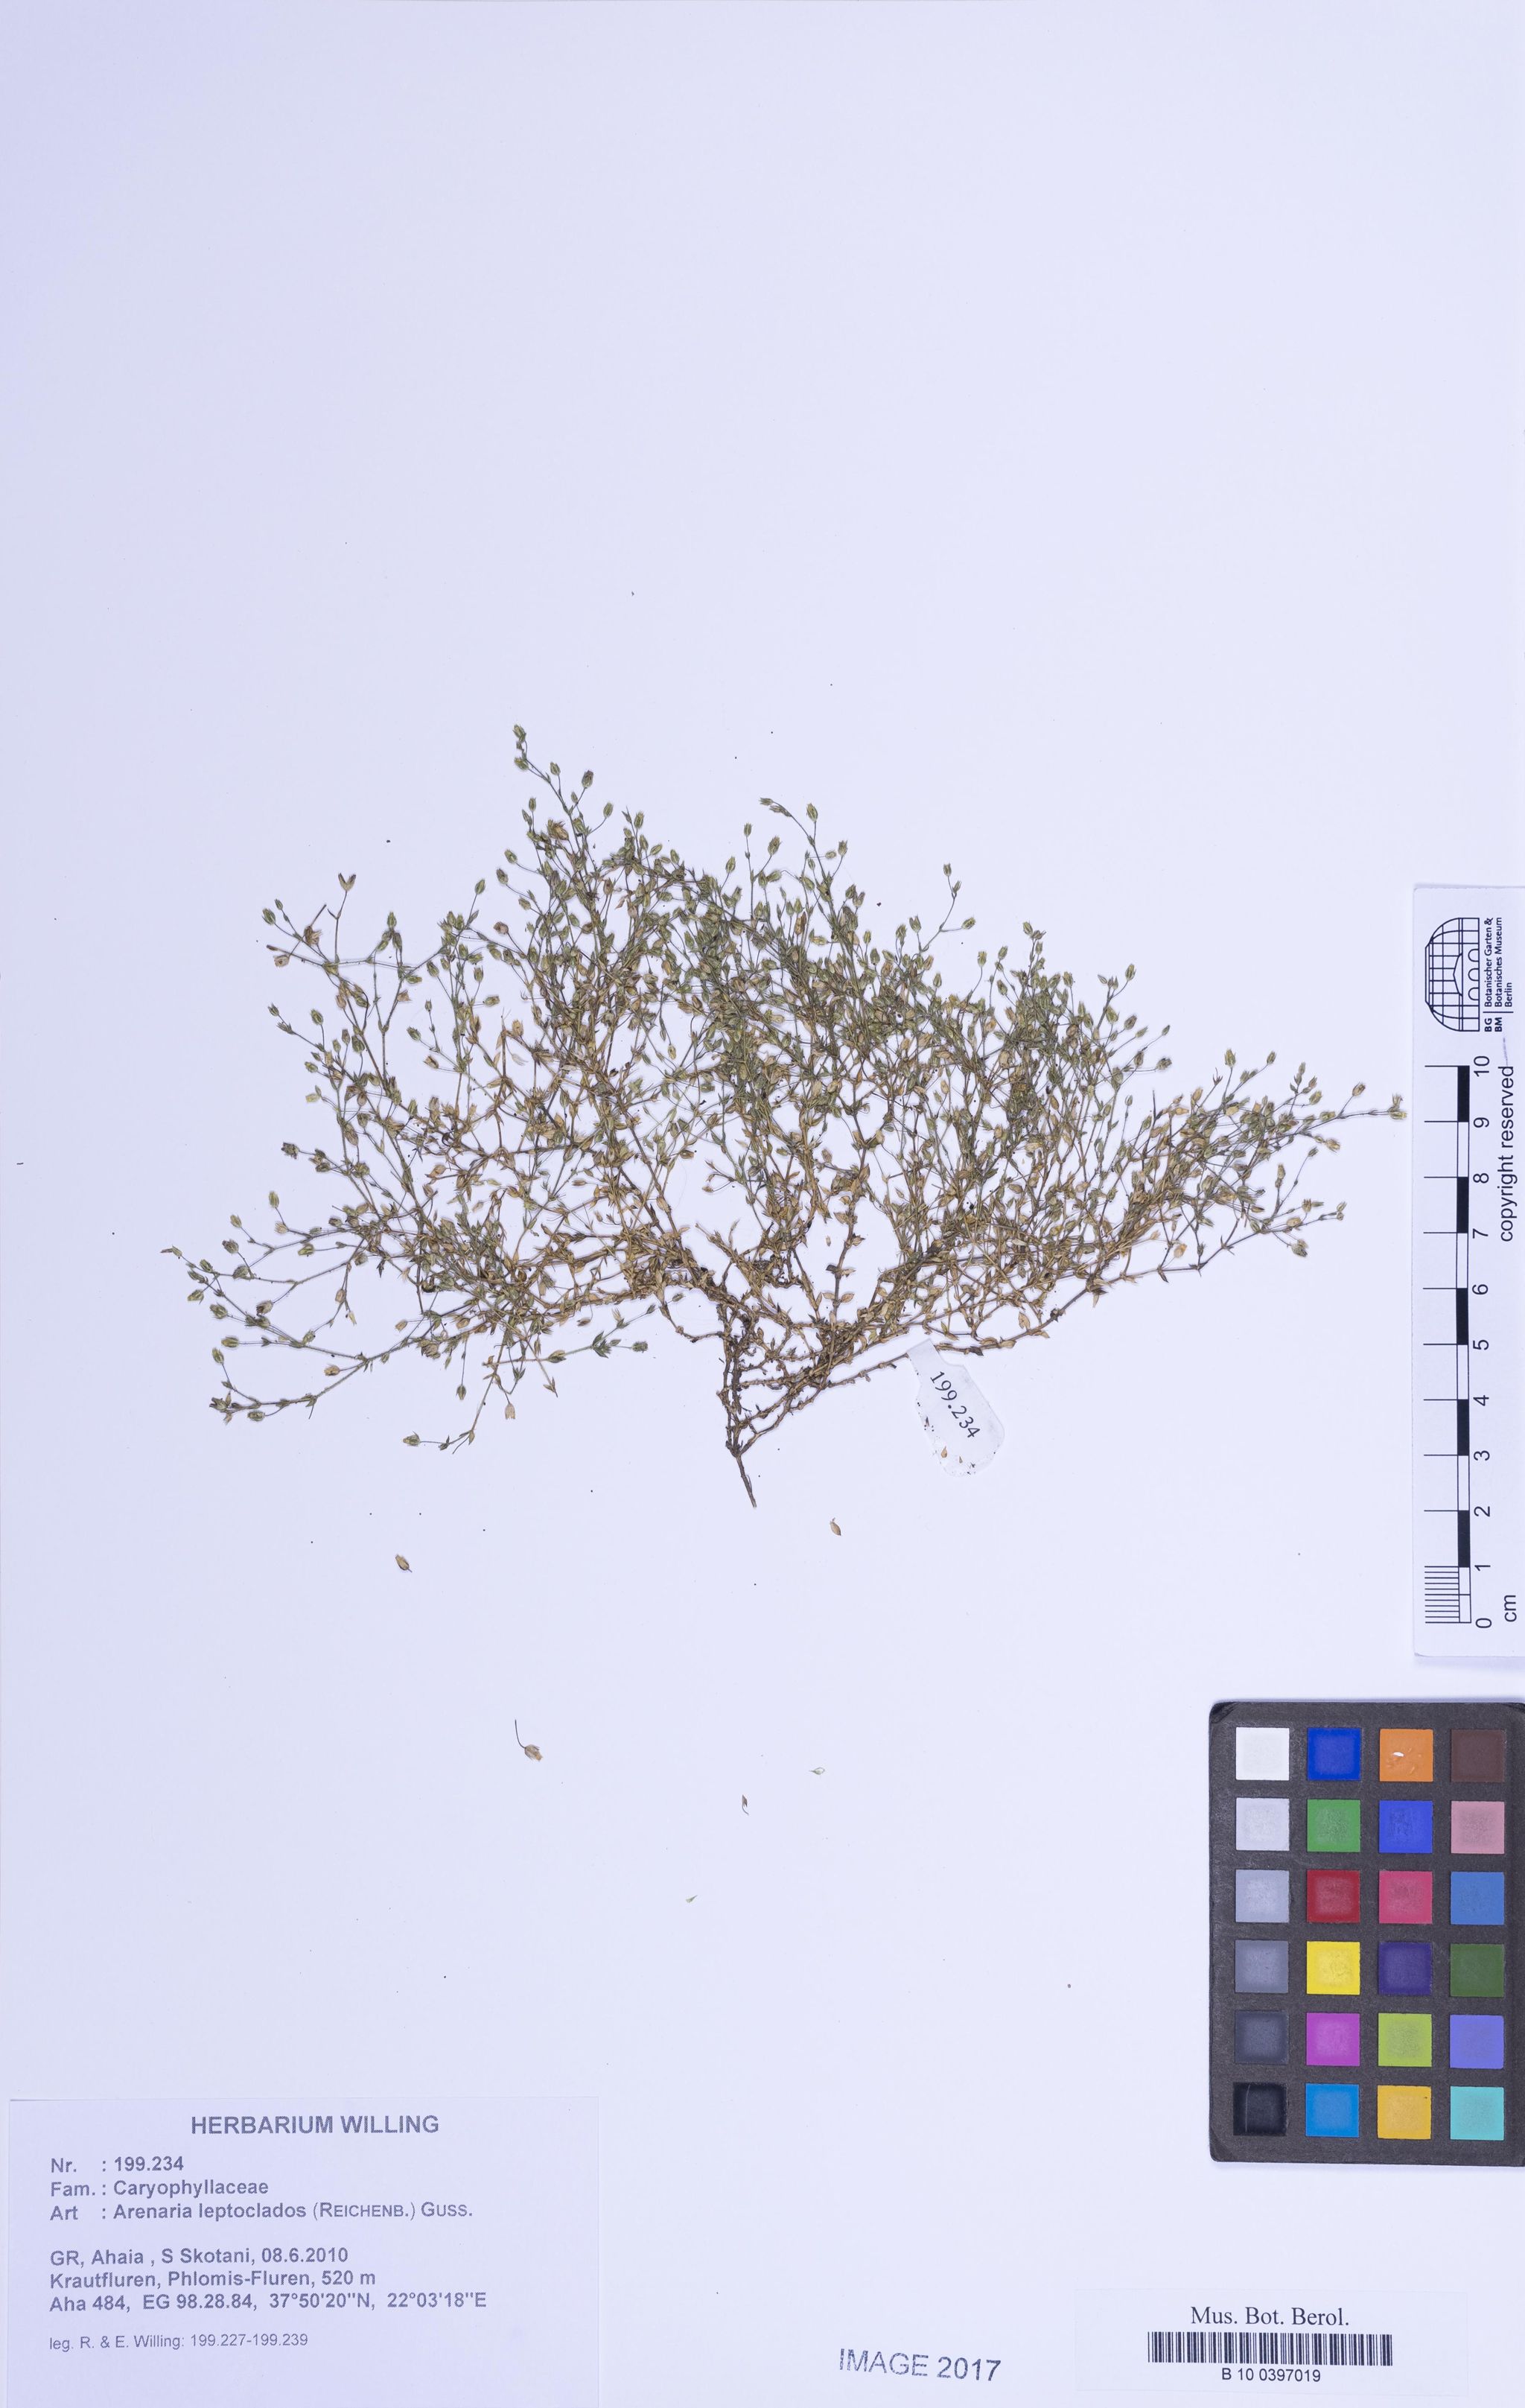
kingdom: Plantae
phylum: Tracheophyta
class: Magnoliopsida
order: Caryophyllales
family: Caryophyllaceae
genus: Arenaria
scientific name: Arenaria leptoclados
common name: Thyme-leaved sandwort
